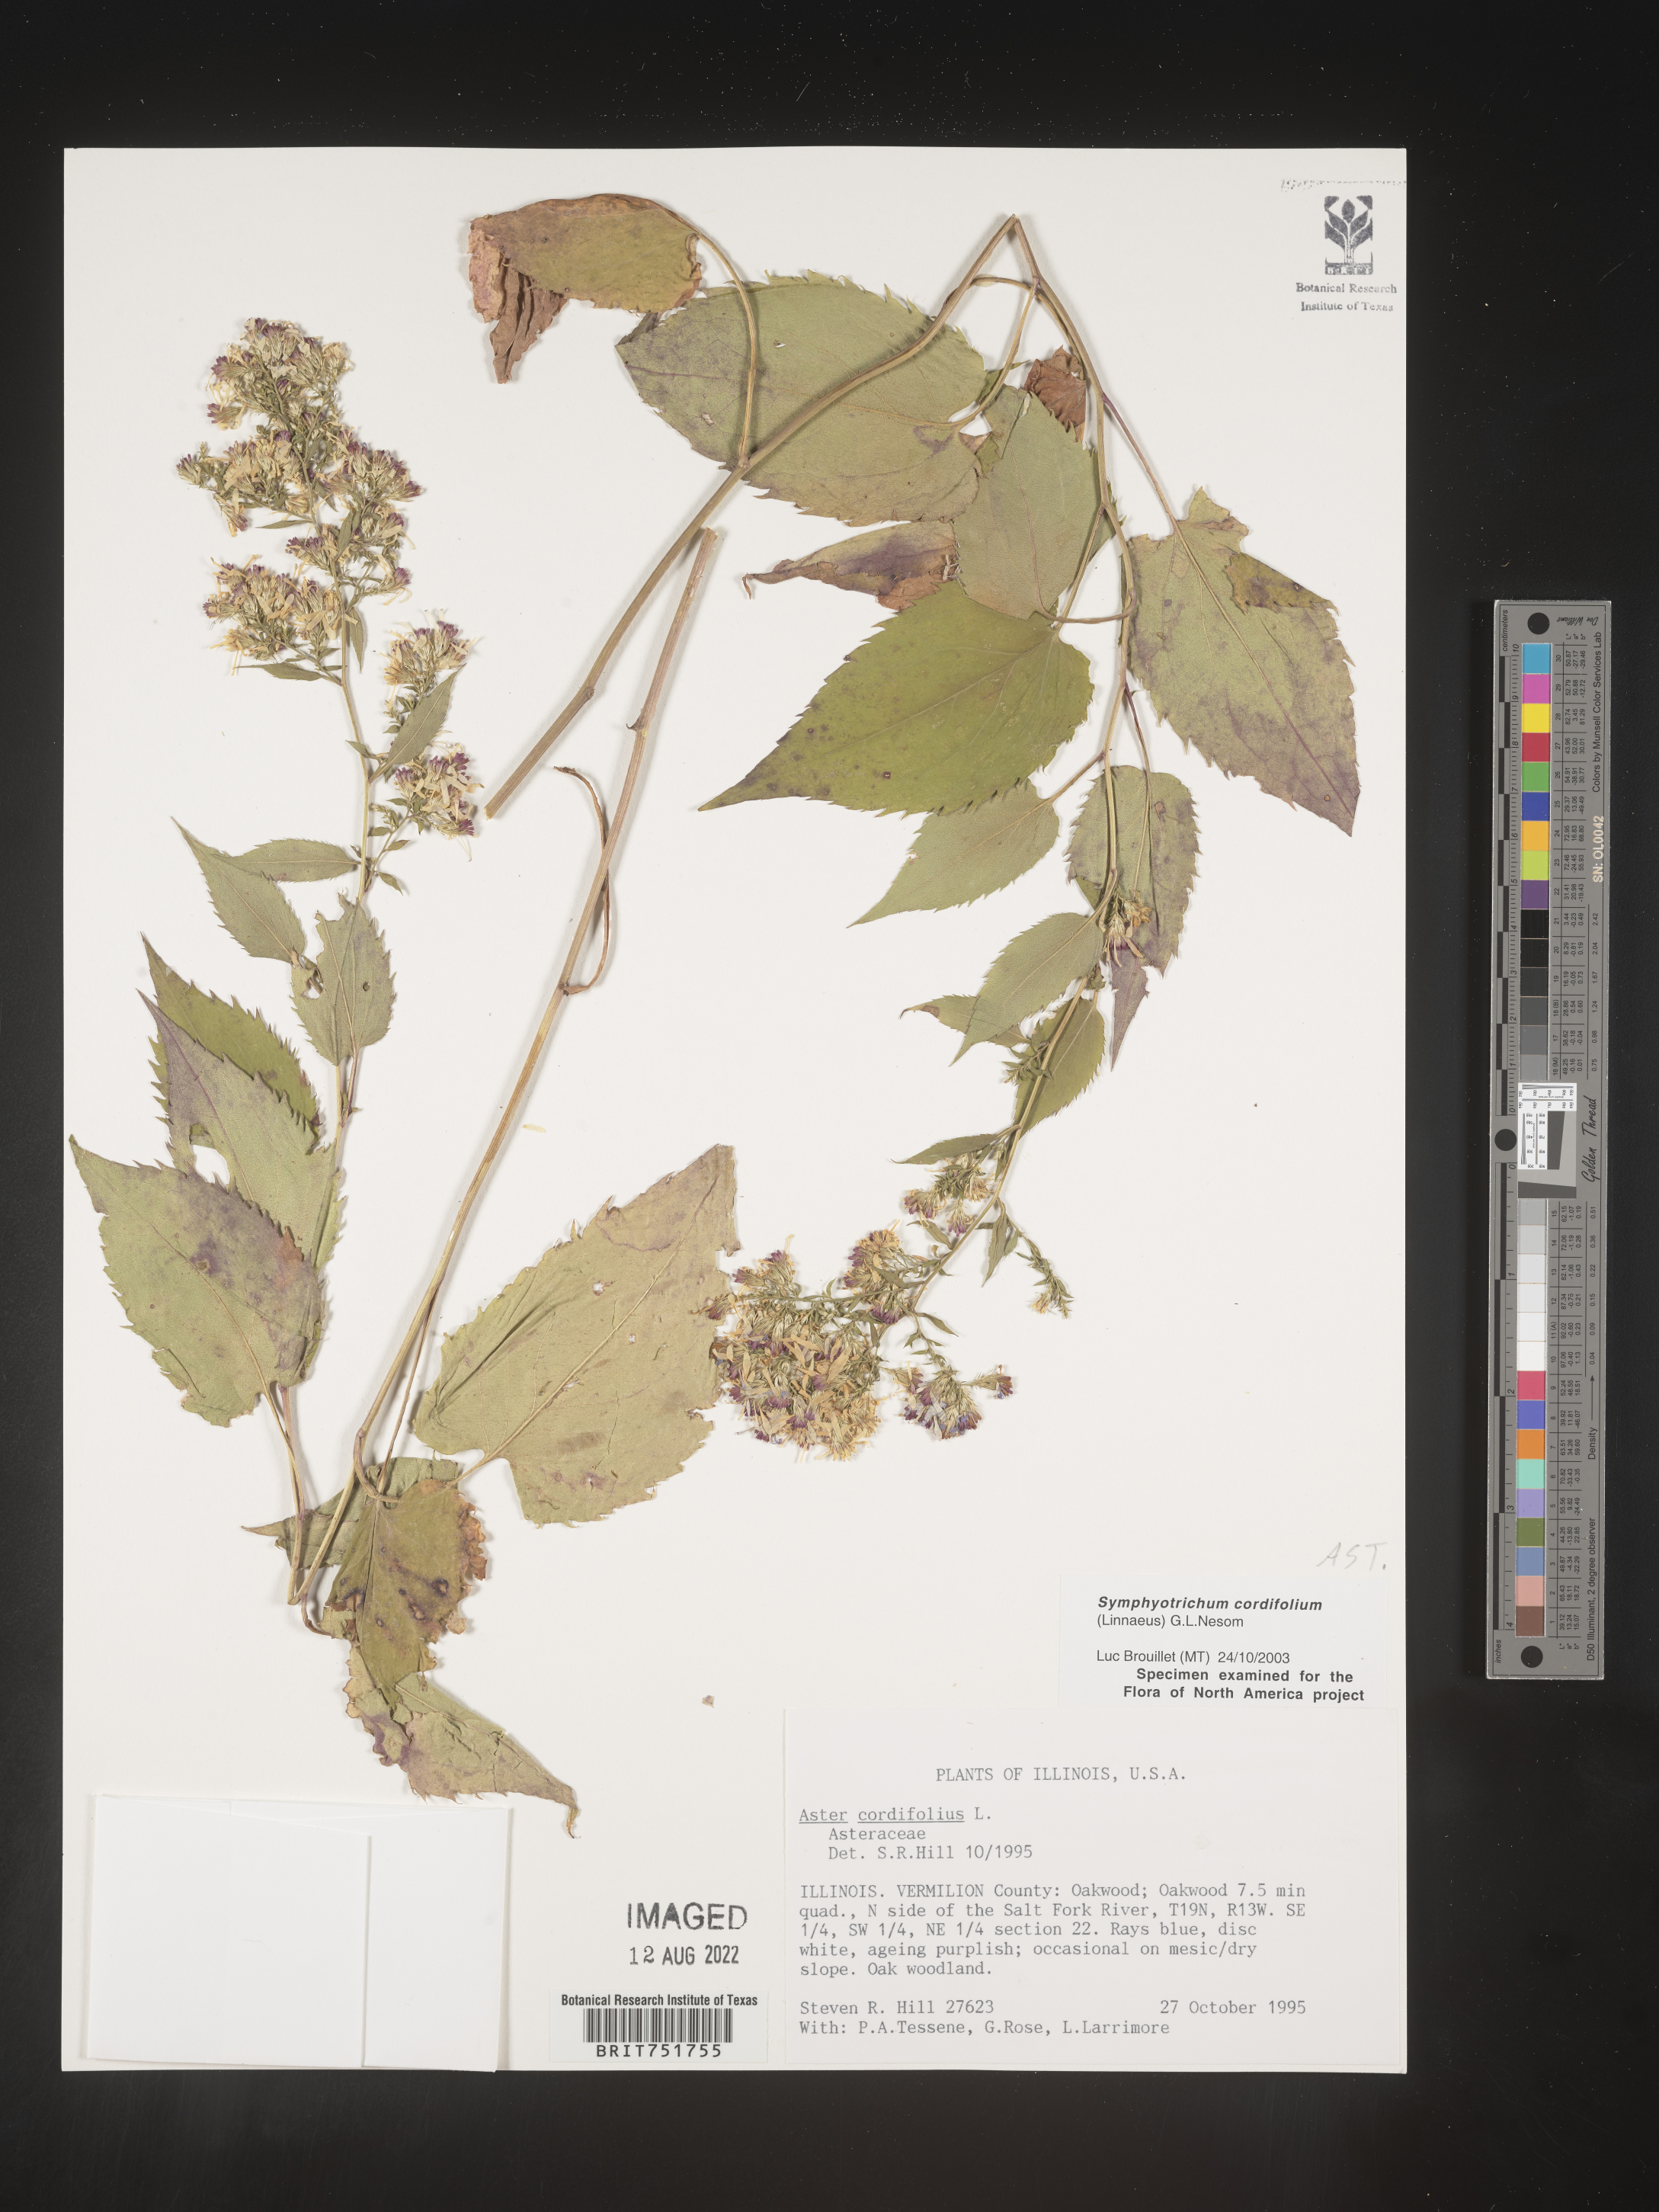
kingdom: Plantae
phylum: Tracheophyta
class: Magnoliopsida
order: Asterales
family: Asteraceae
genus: Symphyotrichum
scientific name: Symphyotrichum cordifolium
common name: Beeweed
